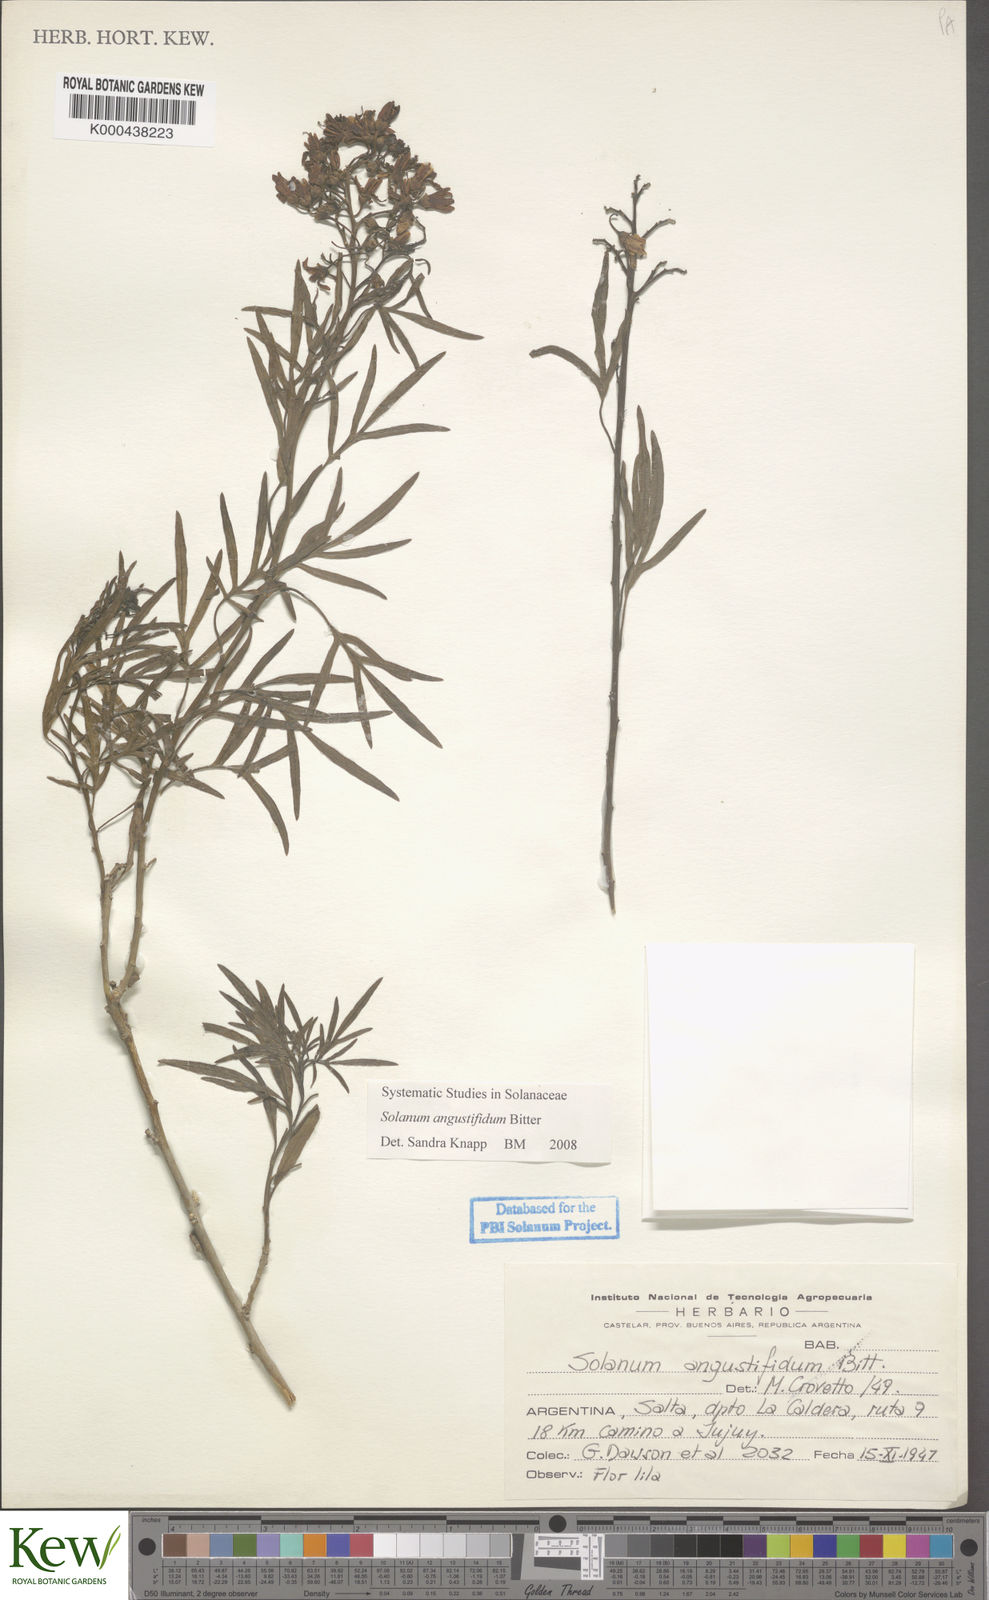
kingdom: Plantae
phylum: Tracheophyta
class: Magnoliopsida
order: Solanales
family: Solanaceae
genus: Solanum
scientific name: Solanum angustifidum
